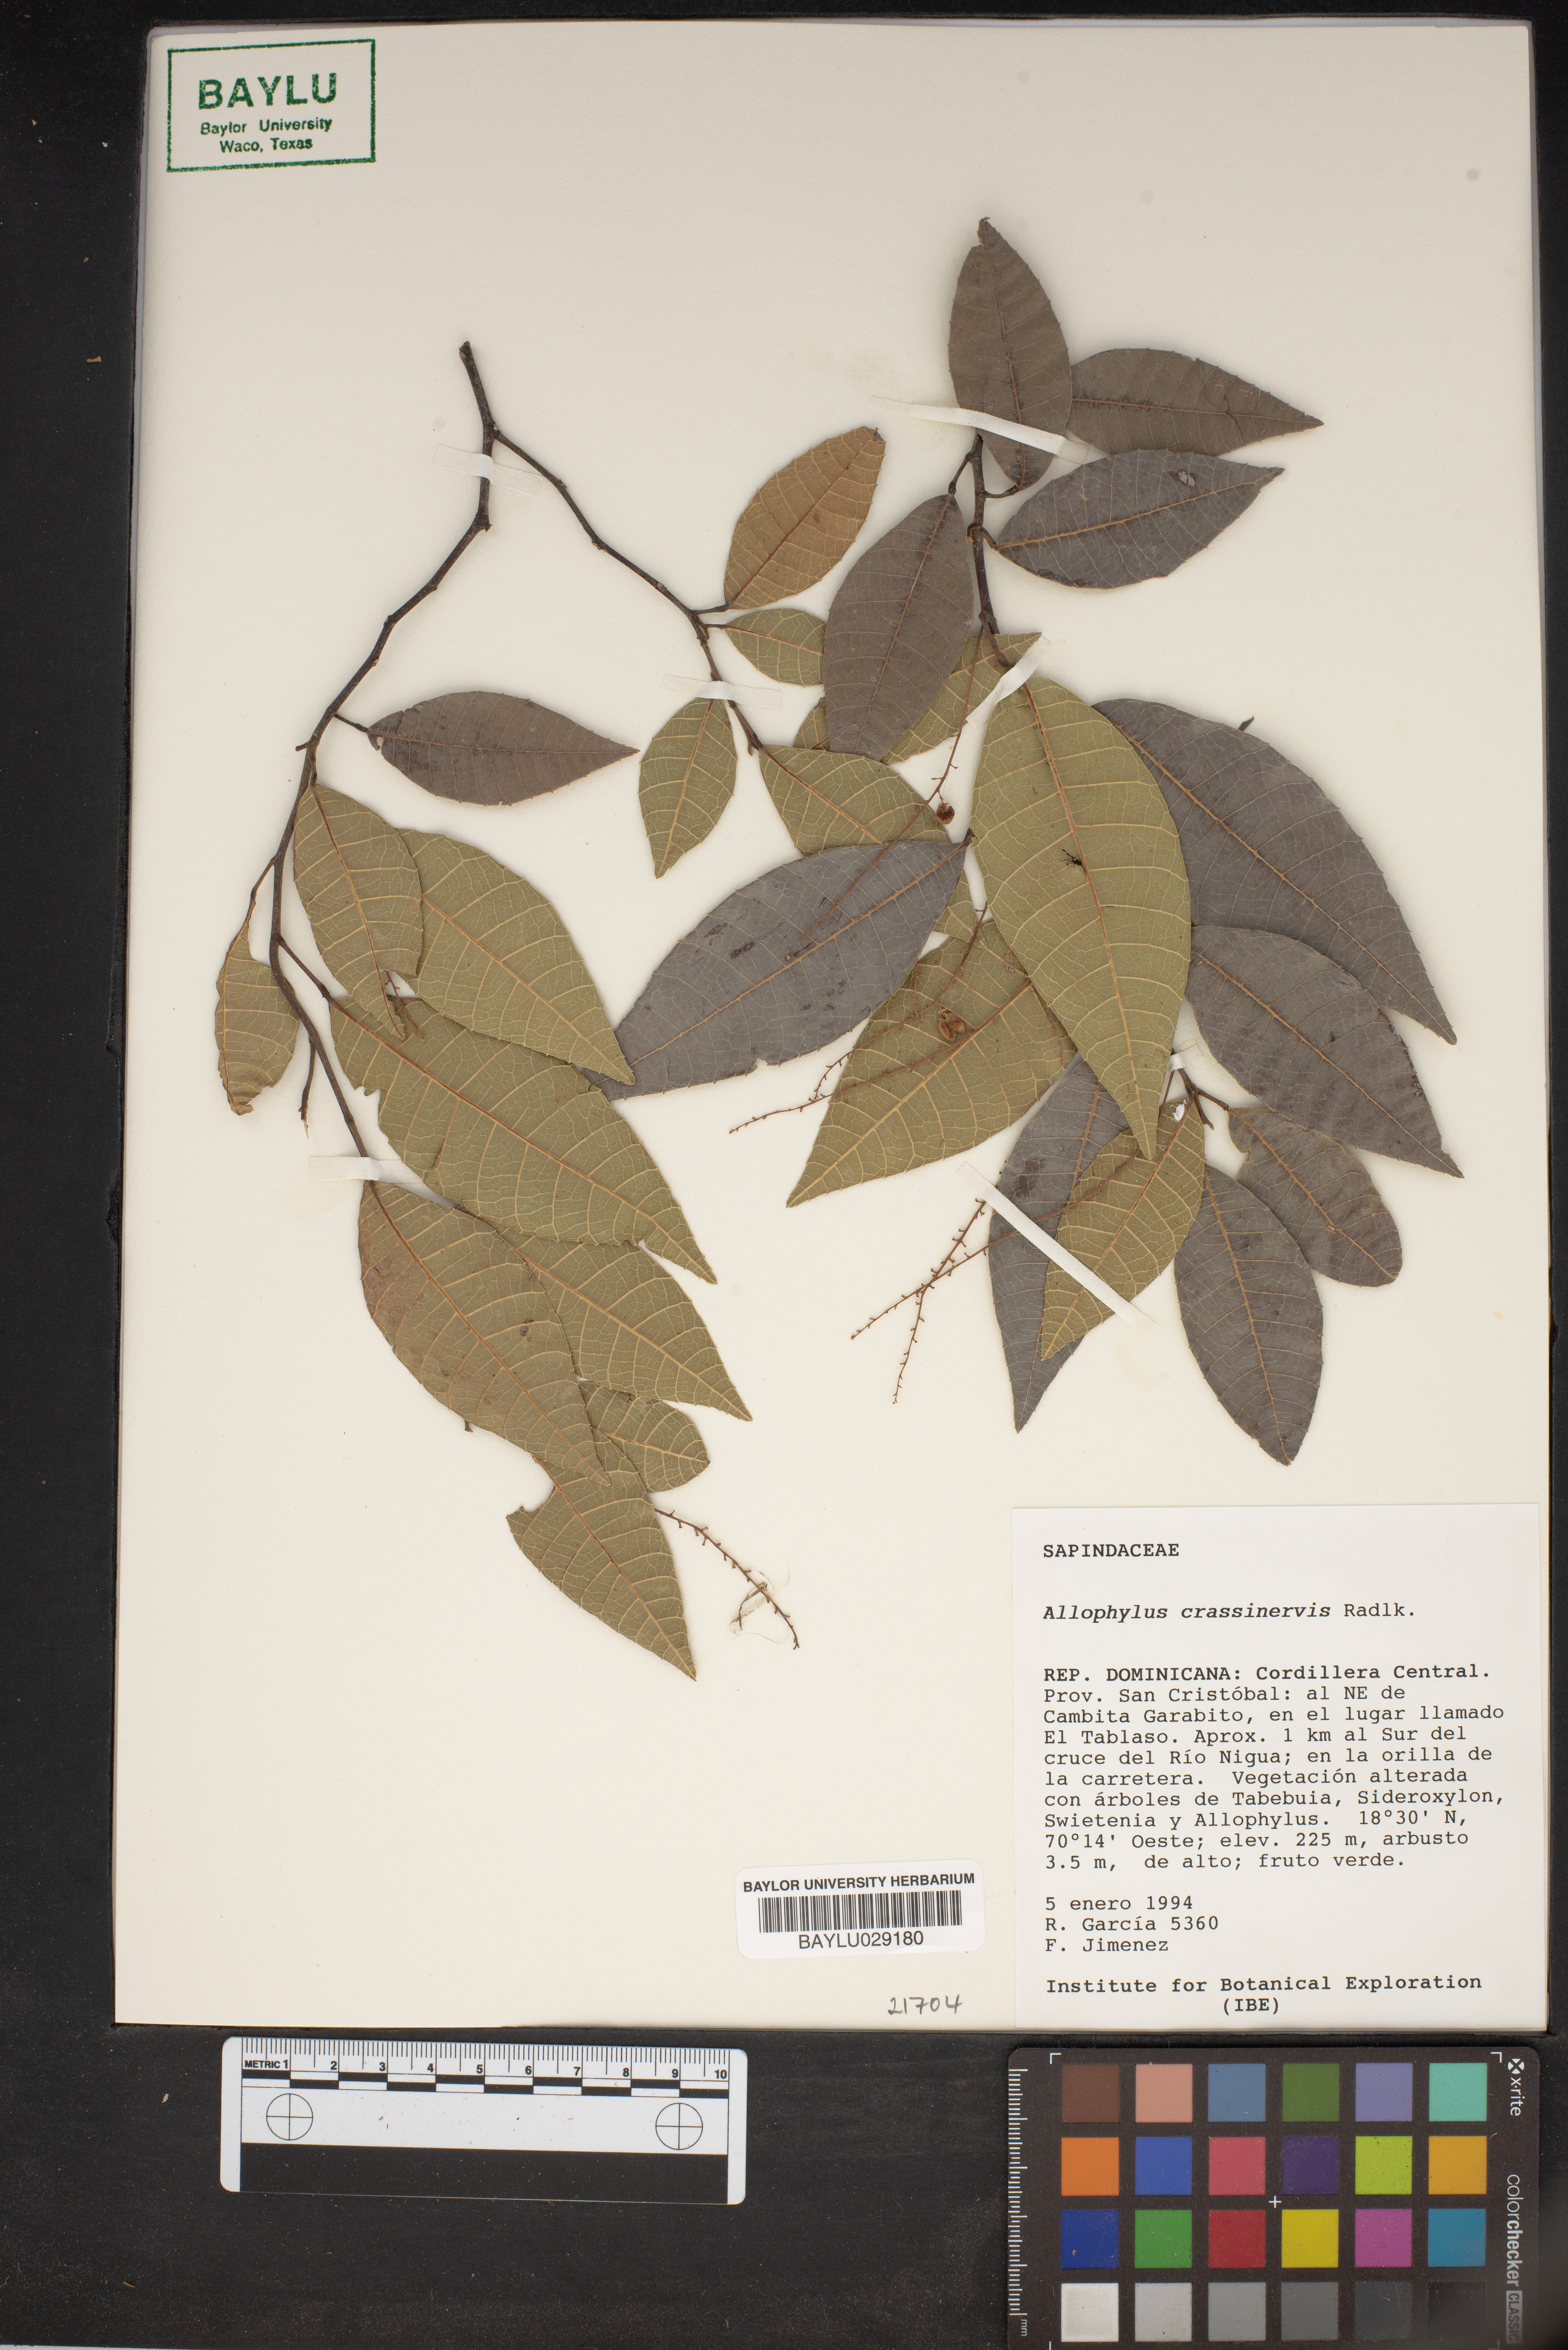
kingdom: Plantae
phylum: Tracheophyta
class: Magnoliopsida
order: Sapindales
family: Sapindaceae
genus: Allophylus
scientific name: Allophylus crassinervis
